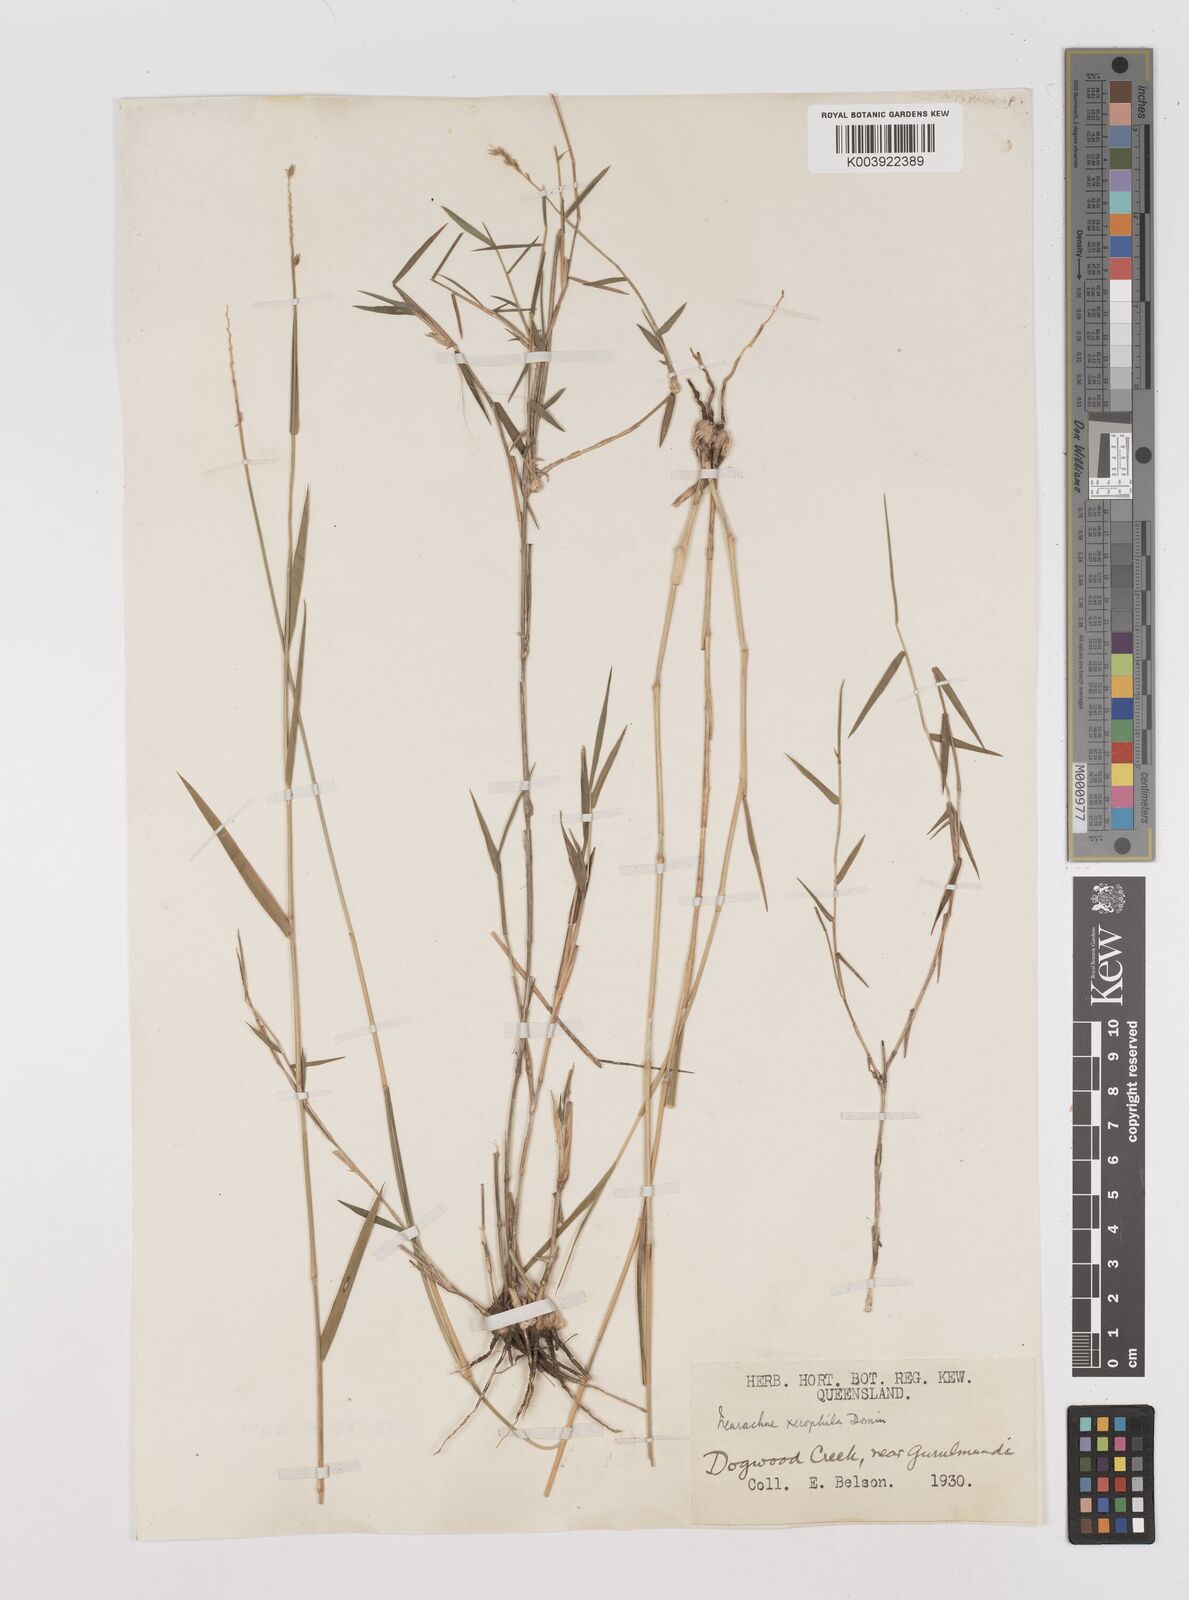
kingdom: Plantae
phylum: Tracheophyta
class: Liliopsida
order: Poales
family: Poaceae
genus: Thyridolepis
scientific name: Thyridolepis xerophila
